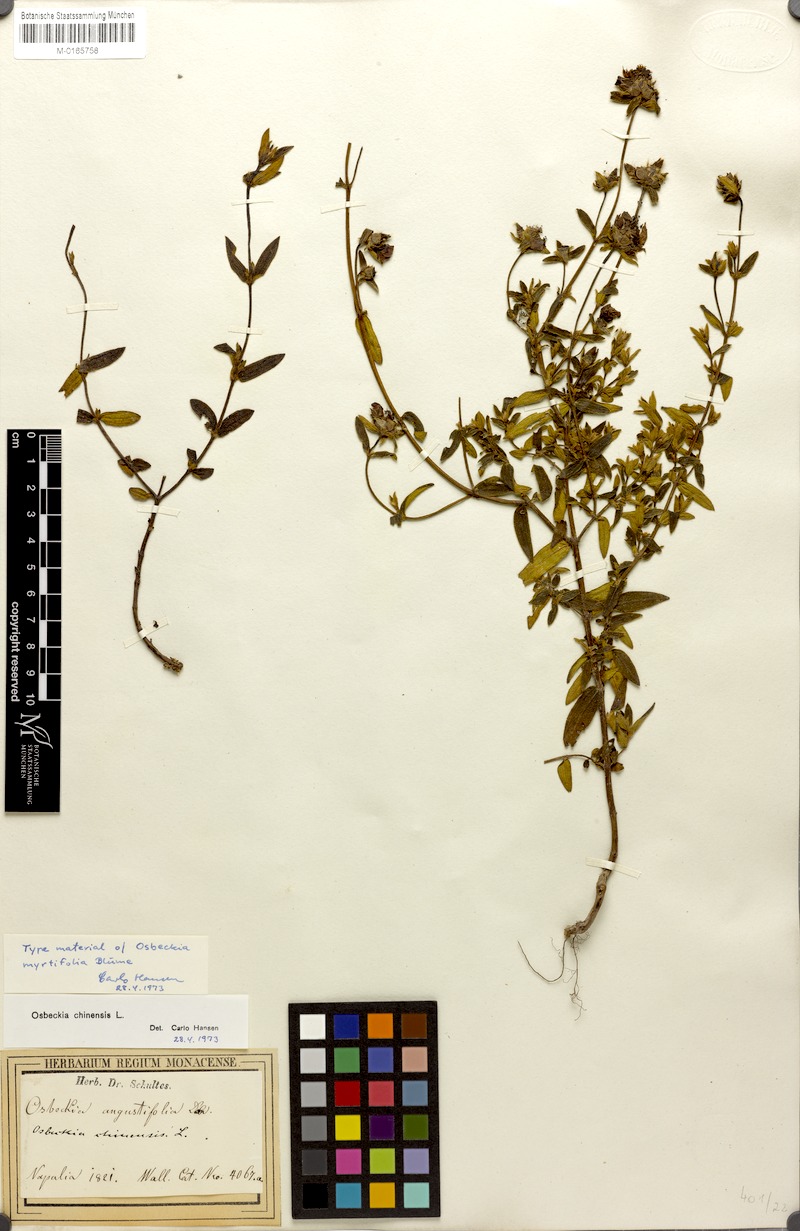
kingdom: Plantae
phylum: Tracheophyta
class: Magnoliopsida
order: Myrtales
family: Melastomataceae
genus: Osbeckia
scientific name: Osbeckia chinensis
